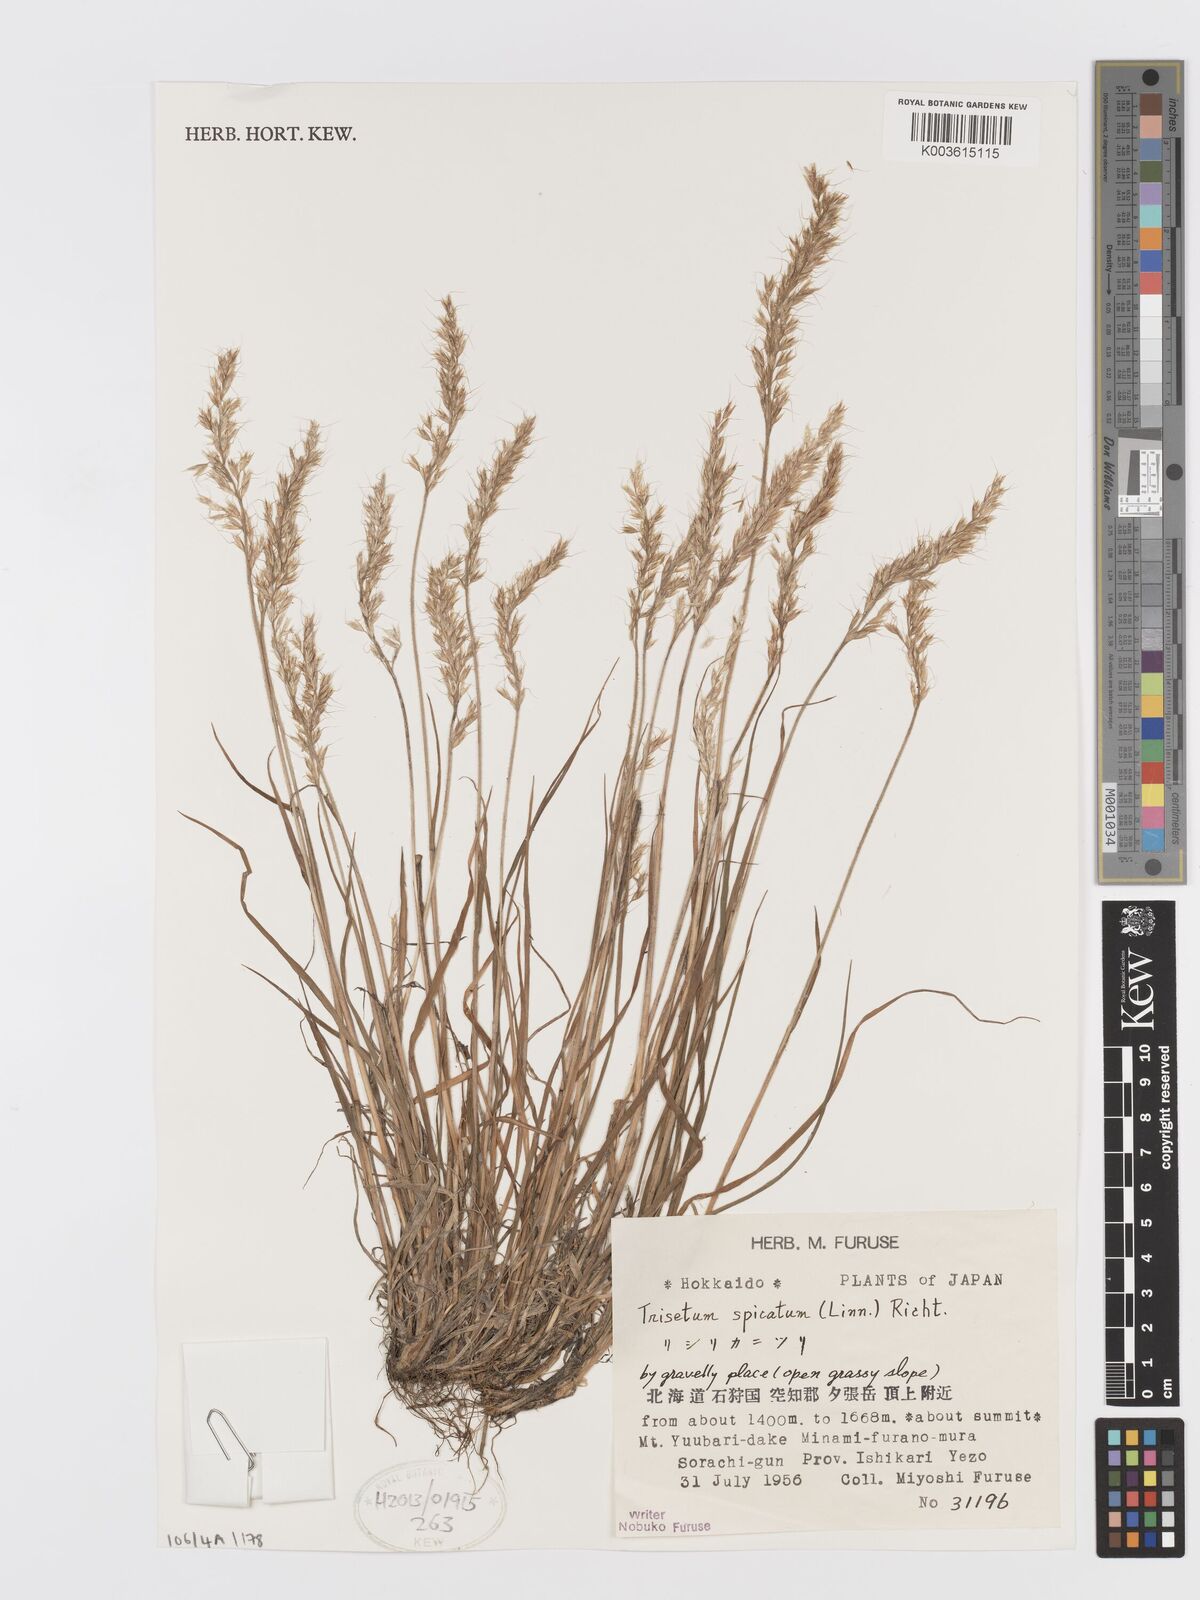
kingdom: Plantae
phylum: Tracheophyta
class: Liliopsida
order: Poales
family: Poaceae
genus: Koeleria
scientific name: Koeleria spicata
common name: Mountain trisetum
